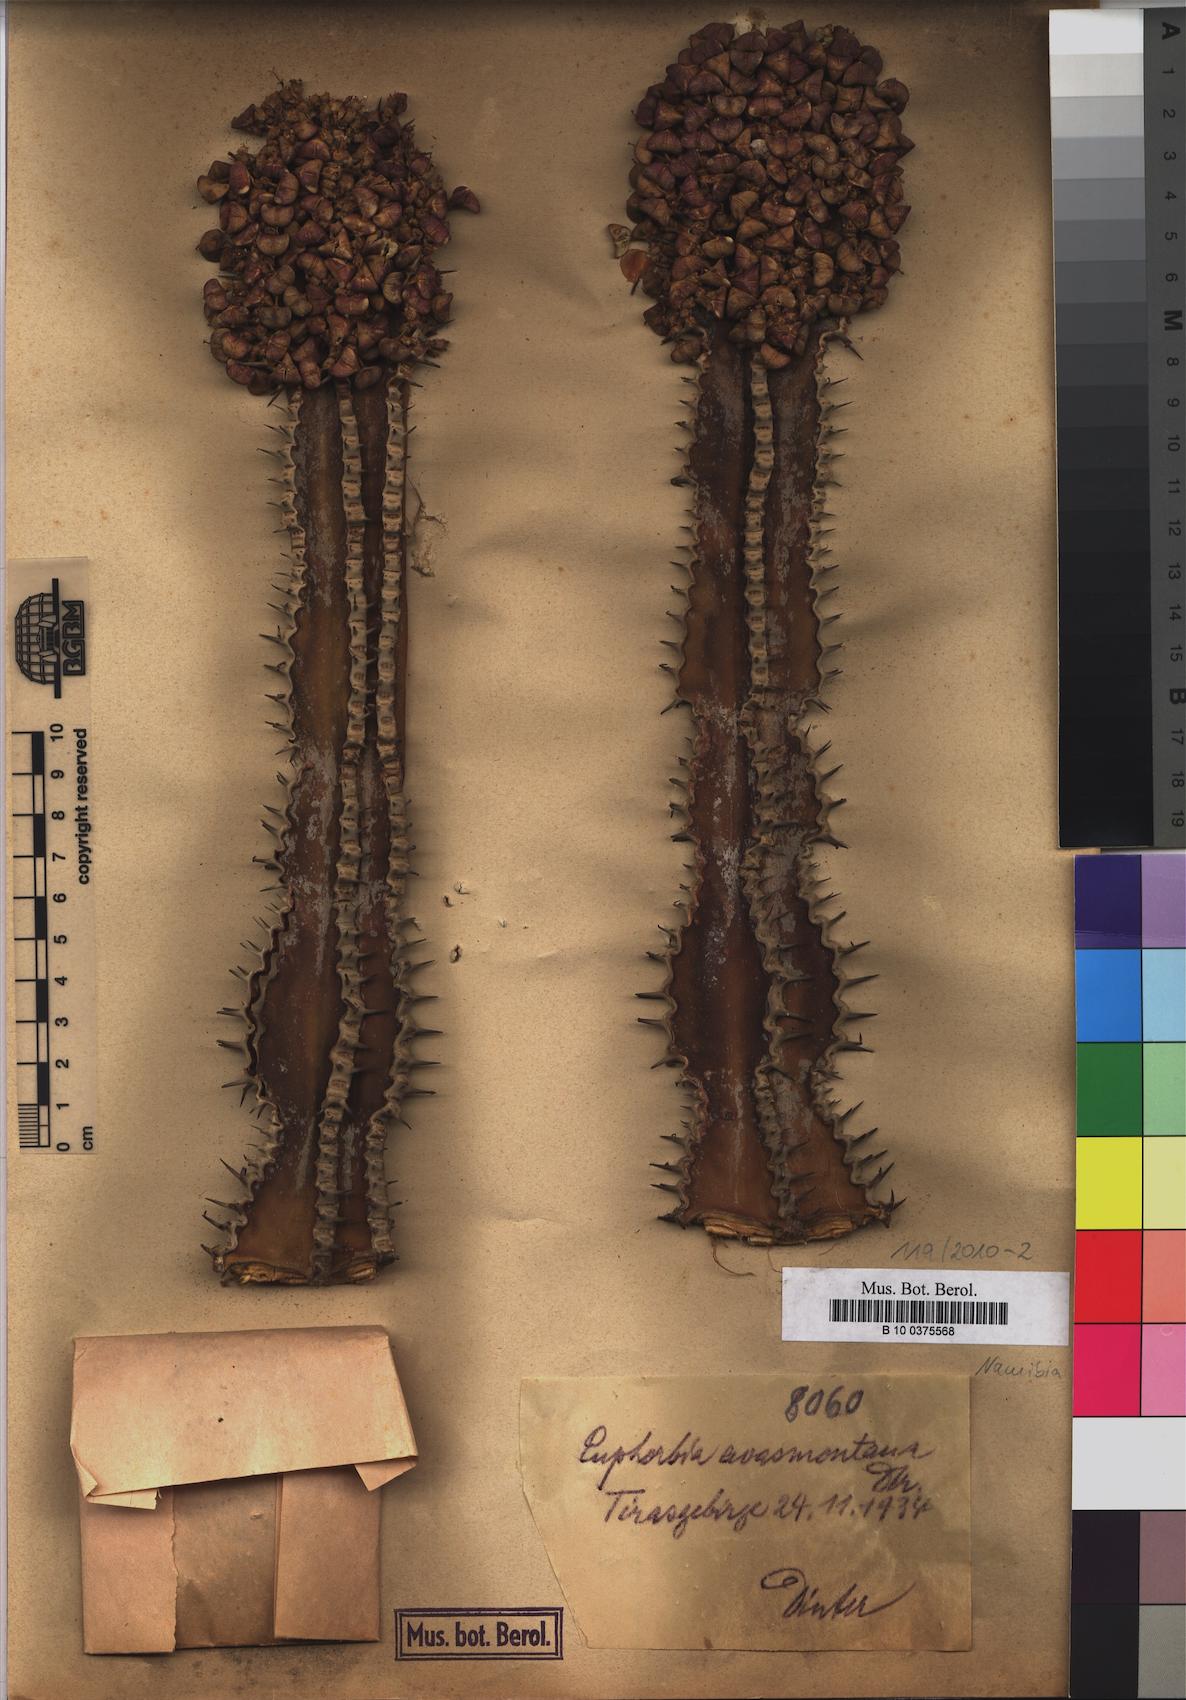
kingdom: Plantae
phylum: Tracheophyta
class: Magnoliopsida
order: Malpighiales
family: Euphorbiaceae
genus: Euphorbia
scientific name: Euphorbia avasmontana
